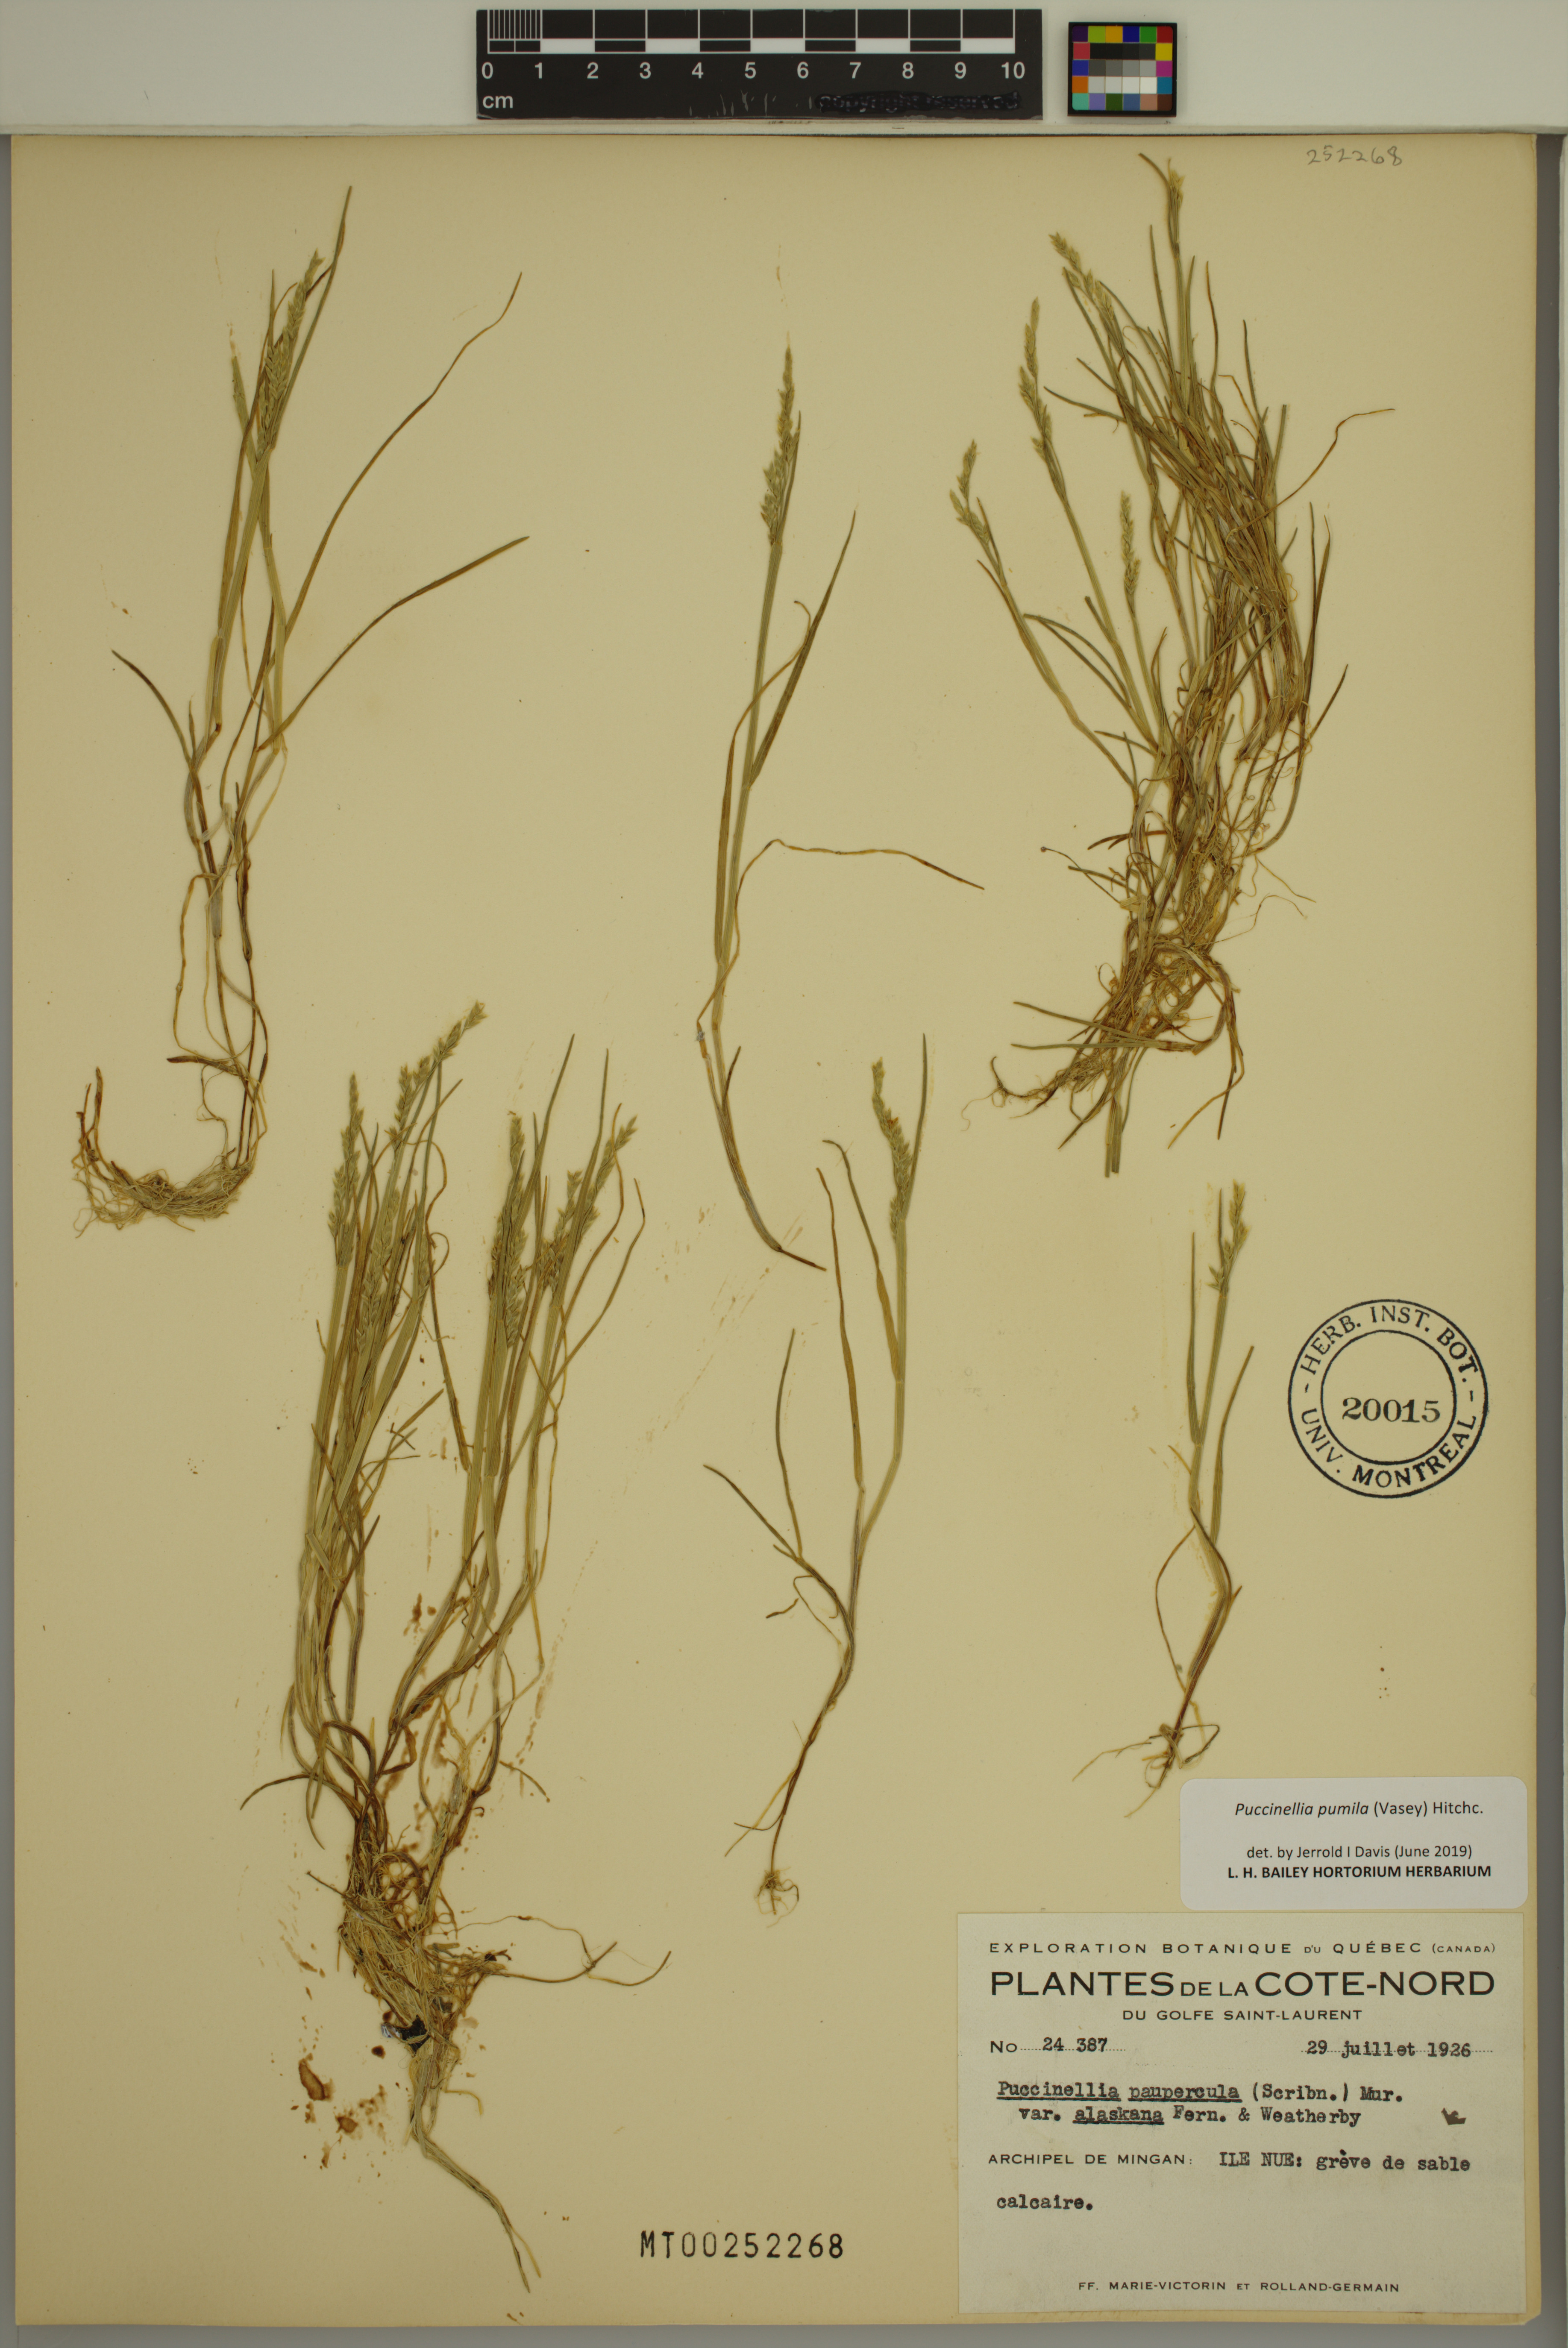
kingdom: Plantae
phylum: Tracheophyta
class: Liliopsida
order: Poales
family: Poaceae
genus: Puccinellia
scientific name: Puccinellia pumila
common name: Dwarf alkaligrass
